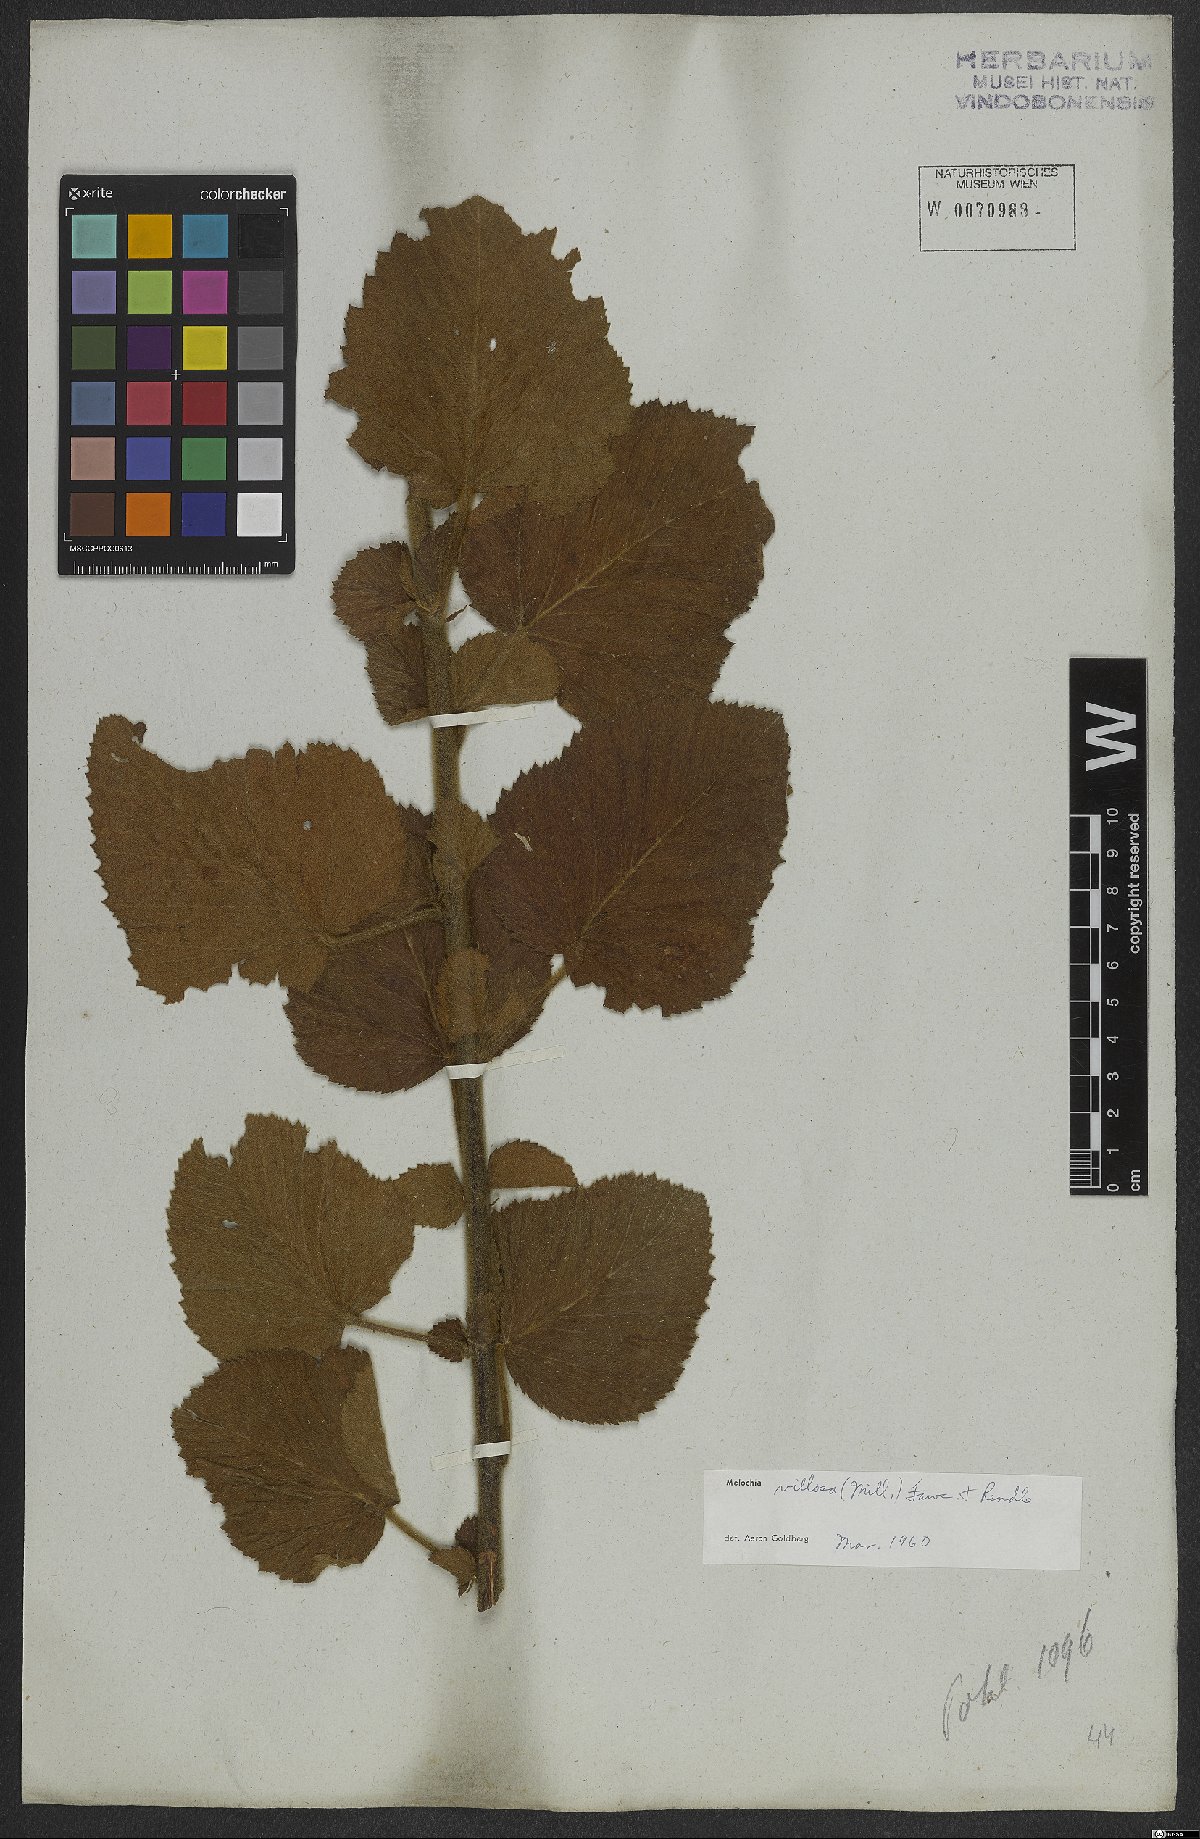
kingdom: Plantae
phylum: Tracheophyta
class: Magnoliopsida
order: Malvales
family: Malvaceae
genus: Melochia
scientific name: Melochia spicata
